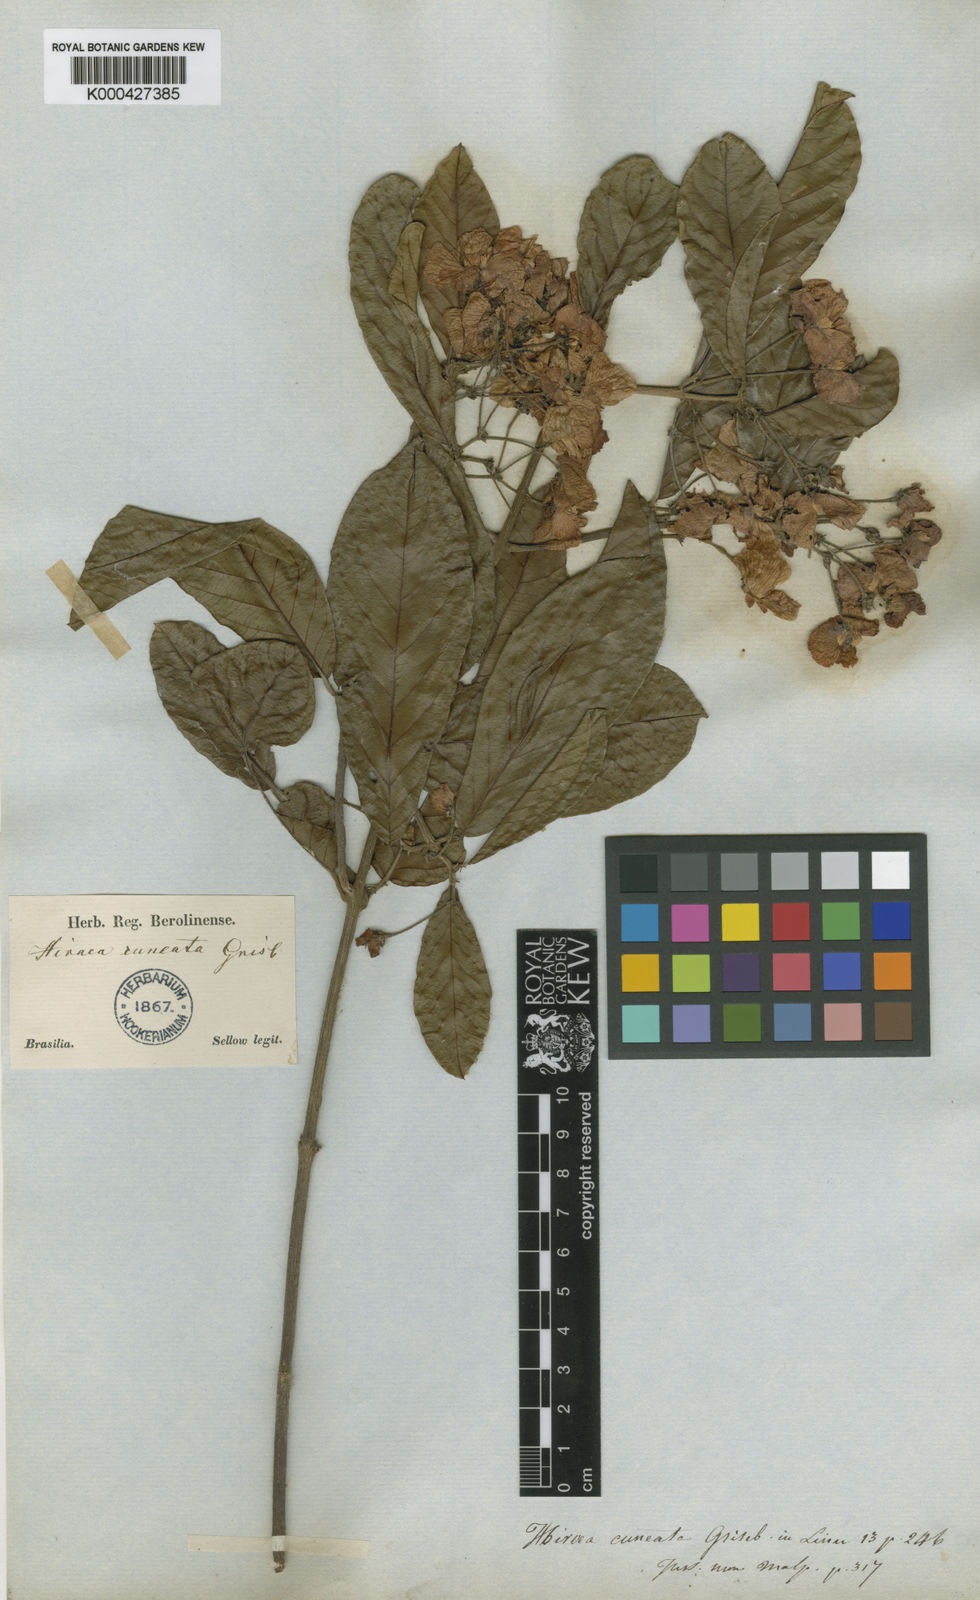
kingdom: Plantae
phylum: Tracheophyta
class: Magnoliopsida
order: Malpighiales
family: Malpighiaceae
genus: Hiraea
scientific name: Hiraea cuneata
